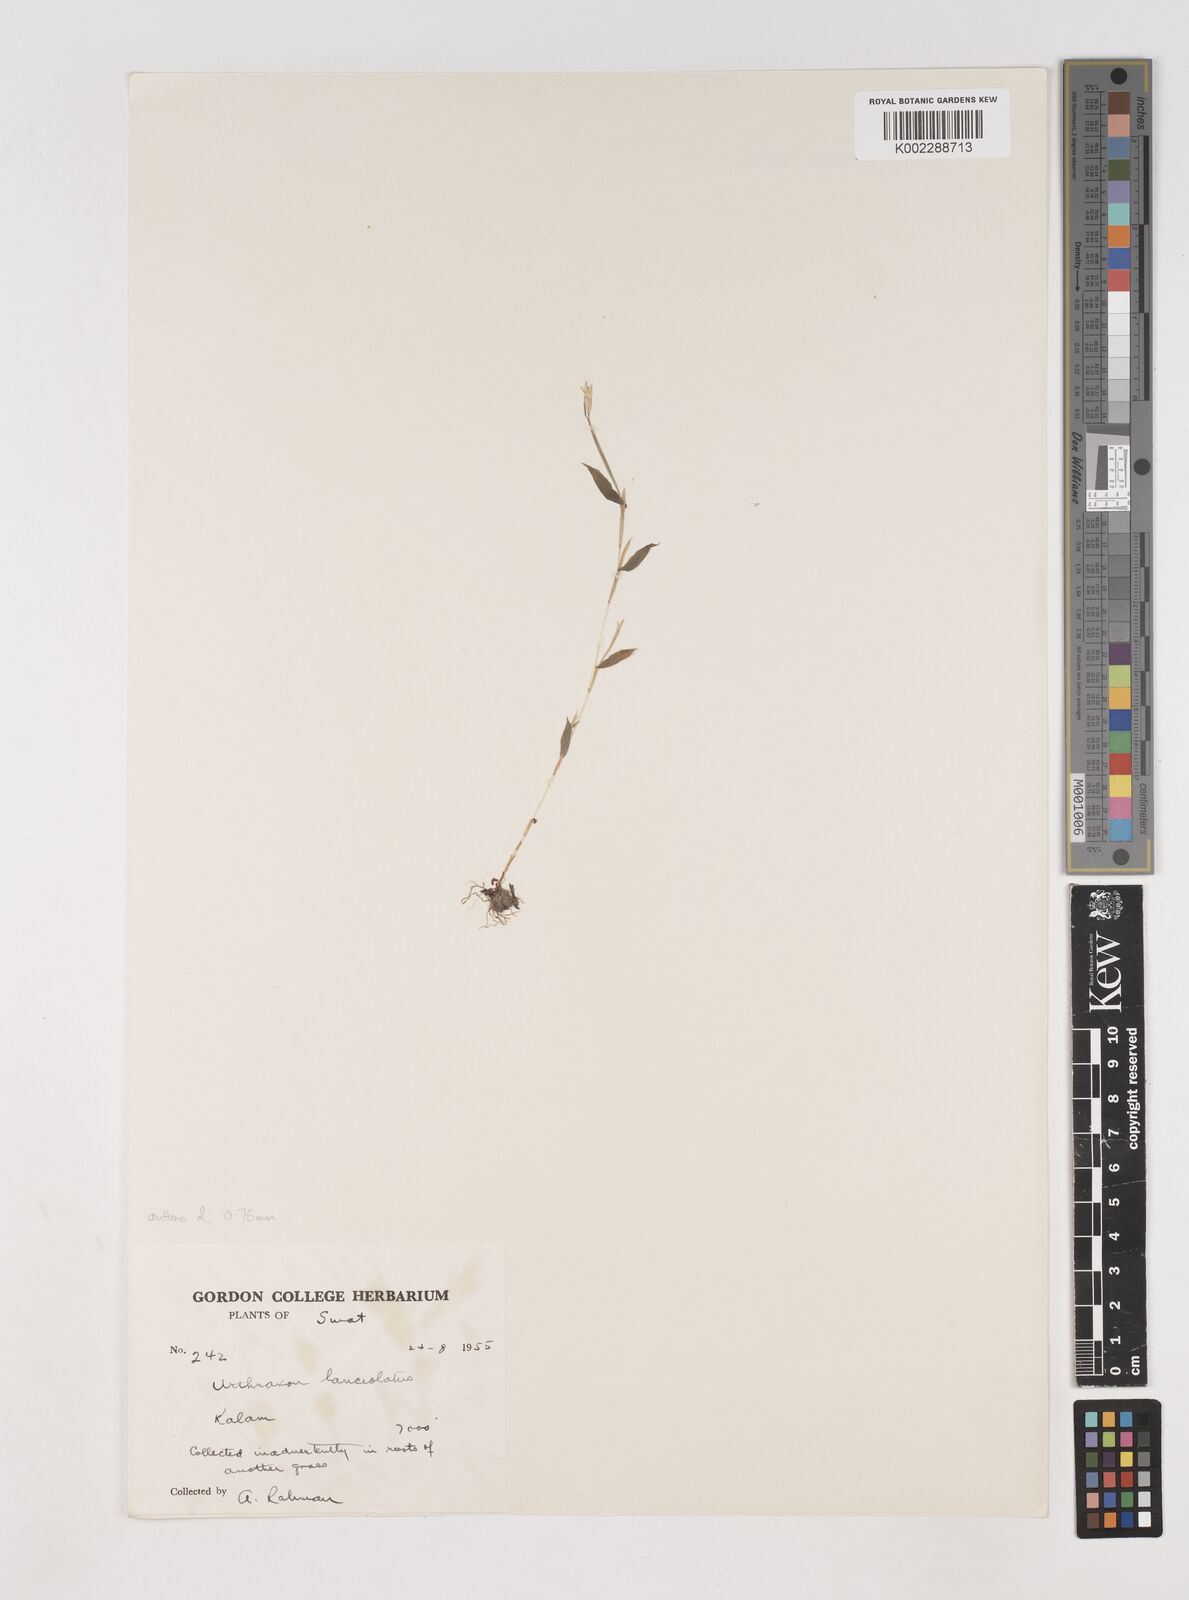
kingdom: Plantae
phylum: Tracheophyta
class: Liliopsida
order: Poales
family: Poaceae
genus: Arthraxon
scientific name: Arthraxon hispidus
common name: Small carpgrass
